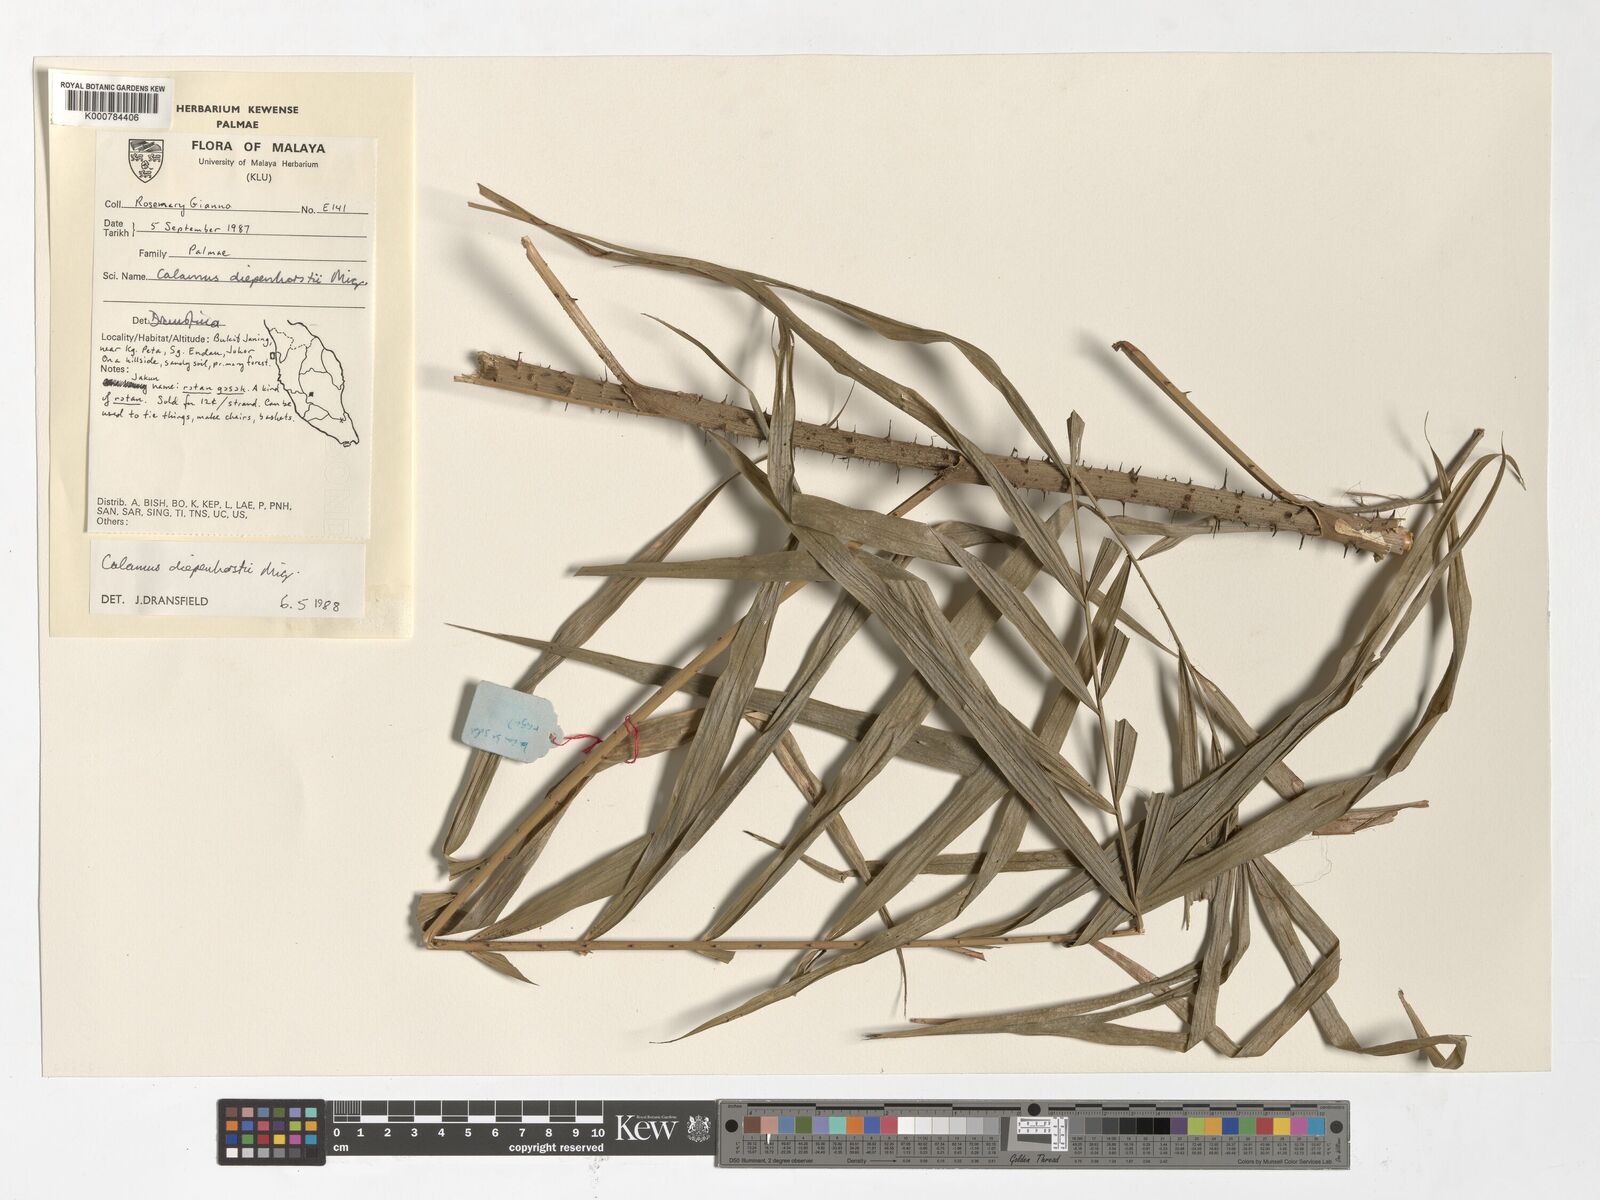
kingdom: Plantae
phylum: Tracheophyta
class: Liliopsida
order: Arecales
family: Arecaceae
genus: Calamus
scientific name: Calamus diepenhorstii
